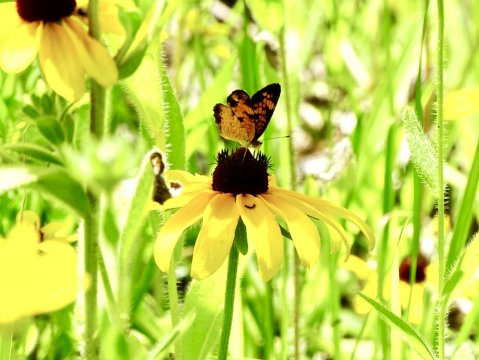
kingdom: Animalia
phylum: Arthropoda
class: Insecta
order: Lepidoptera
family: Nymphalidae
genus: Phyciodes
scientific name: Phyciodes tharos
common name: Pearl Crescent
